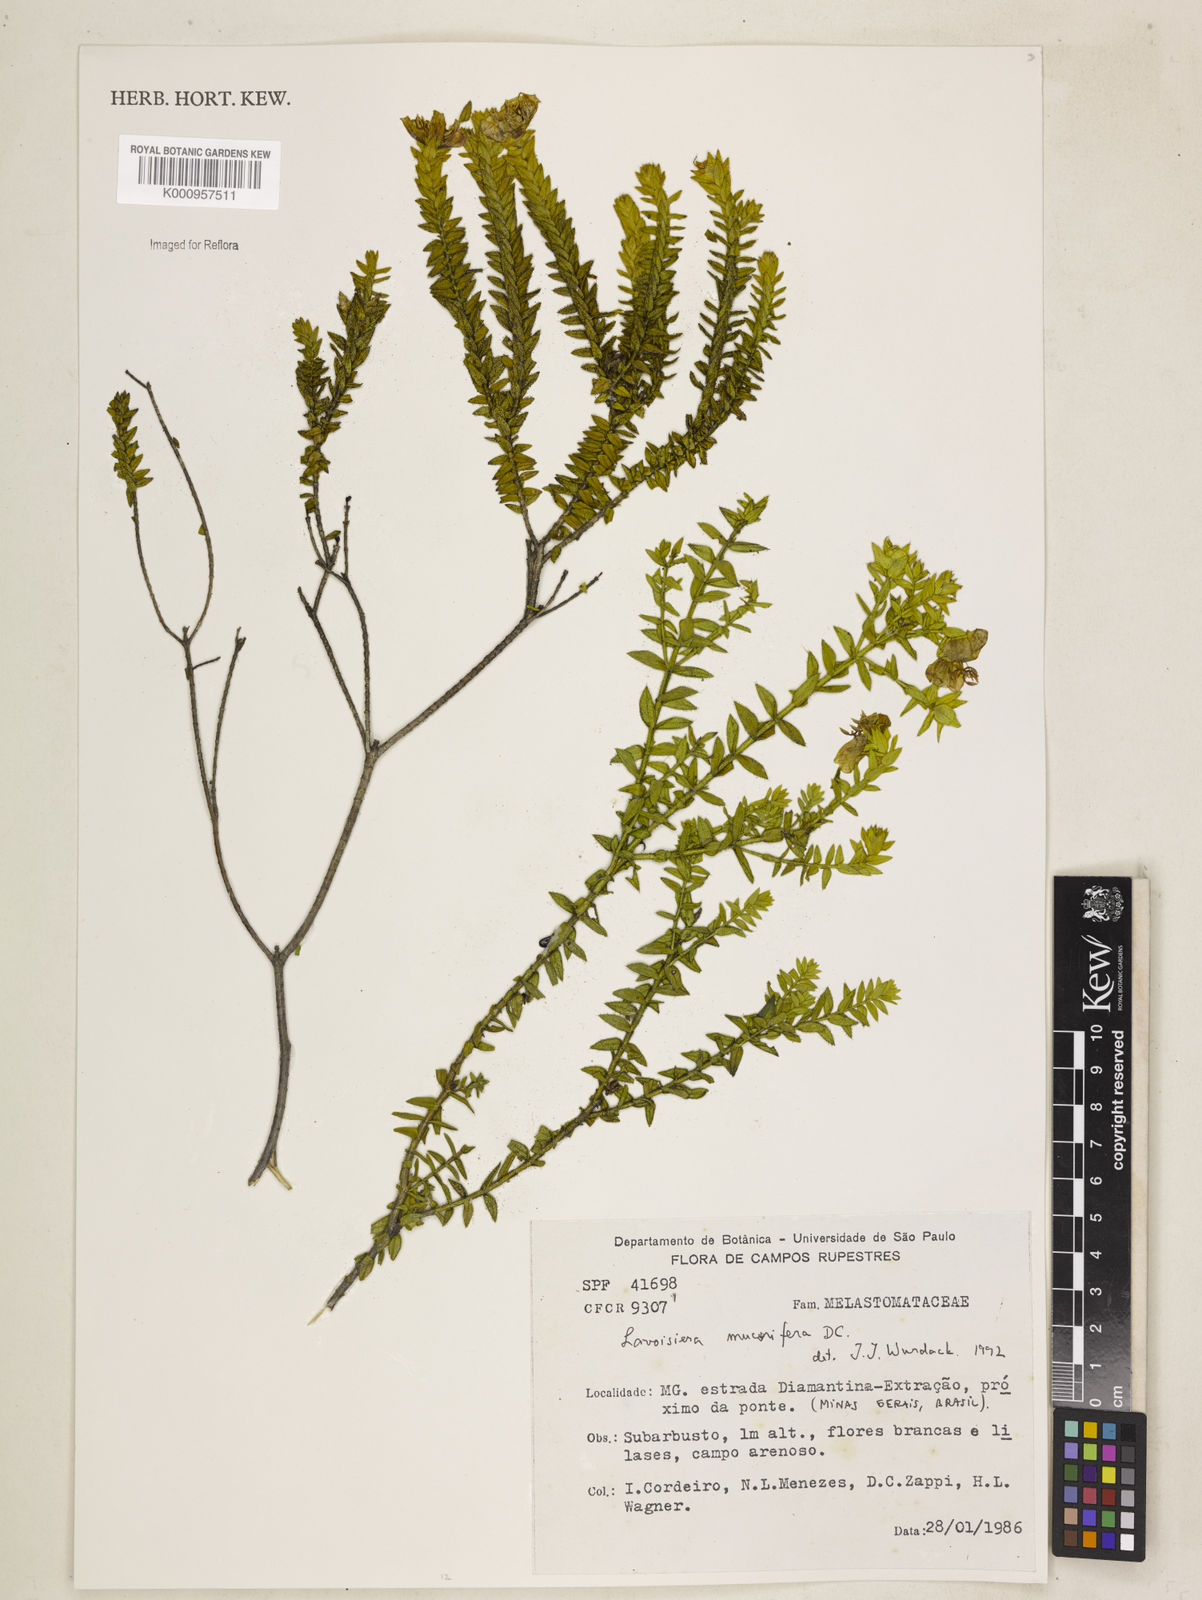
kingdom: Plantae
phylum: Tracheophyta
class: Magnoliopsida
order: Myrtales
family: Melastomataceae
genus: Microlicia
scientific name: Microlicia mucorifera
